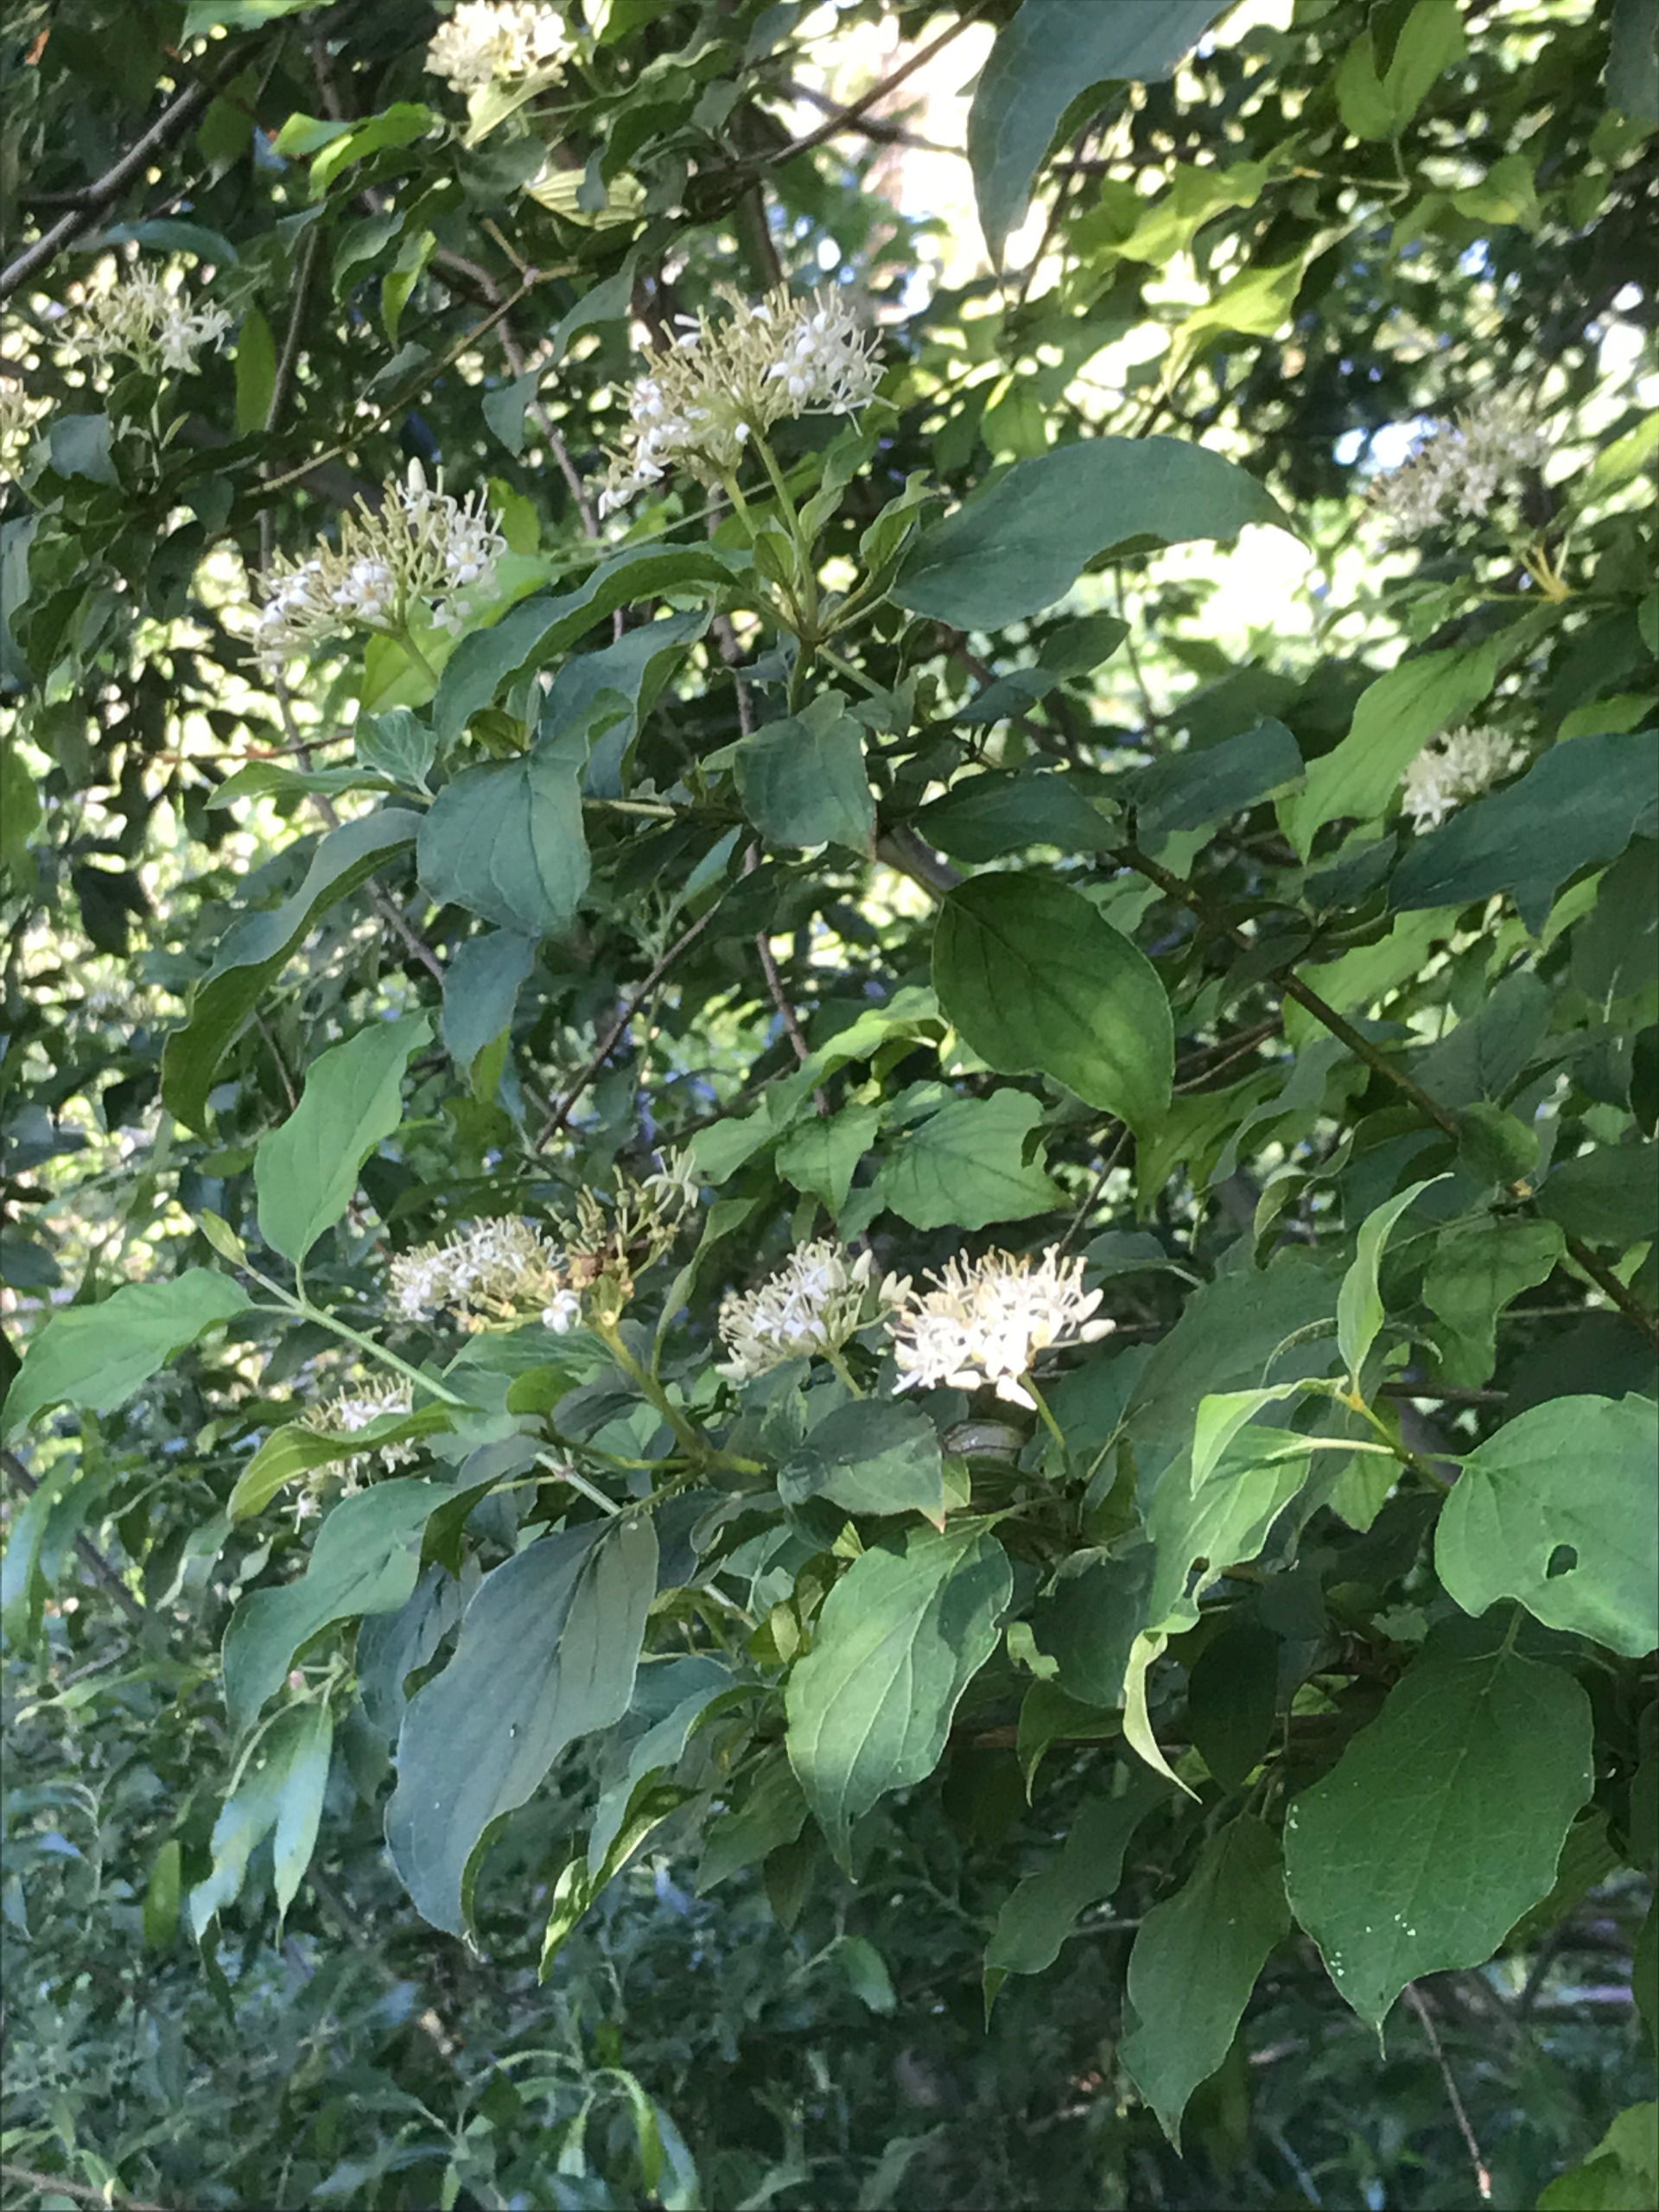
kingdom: Plantae
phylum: Tracheophyta
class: Magnoliopsida
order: Cornales
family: Cornaceae
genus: Cornus
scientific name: Cornus sanguinea
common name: Rød kornel
